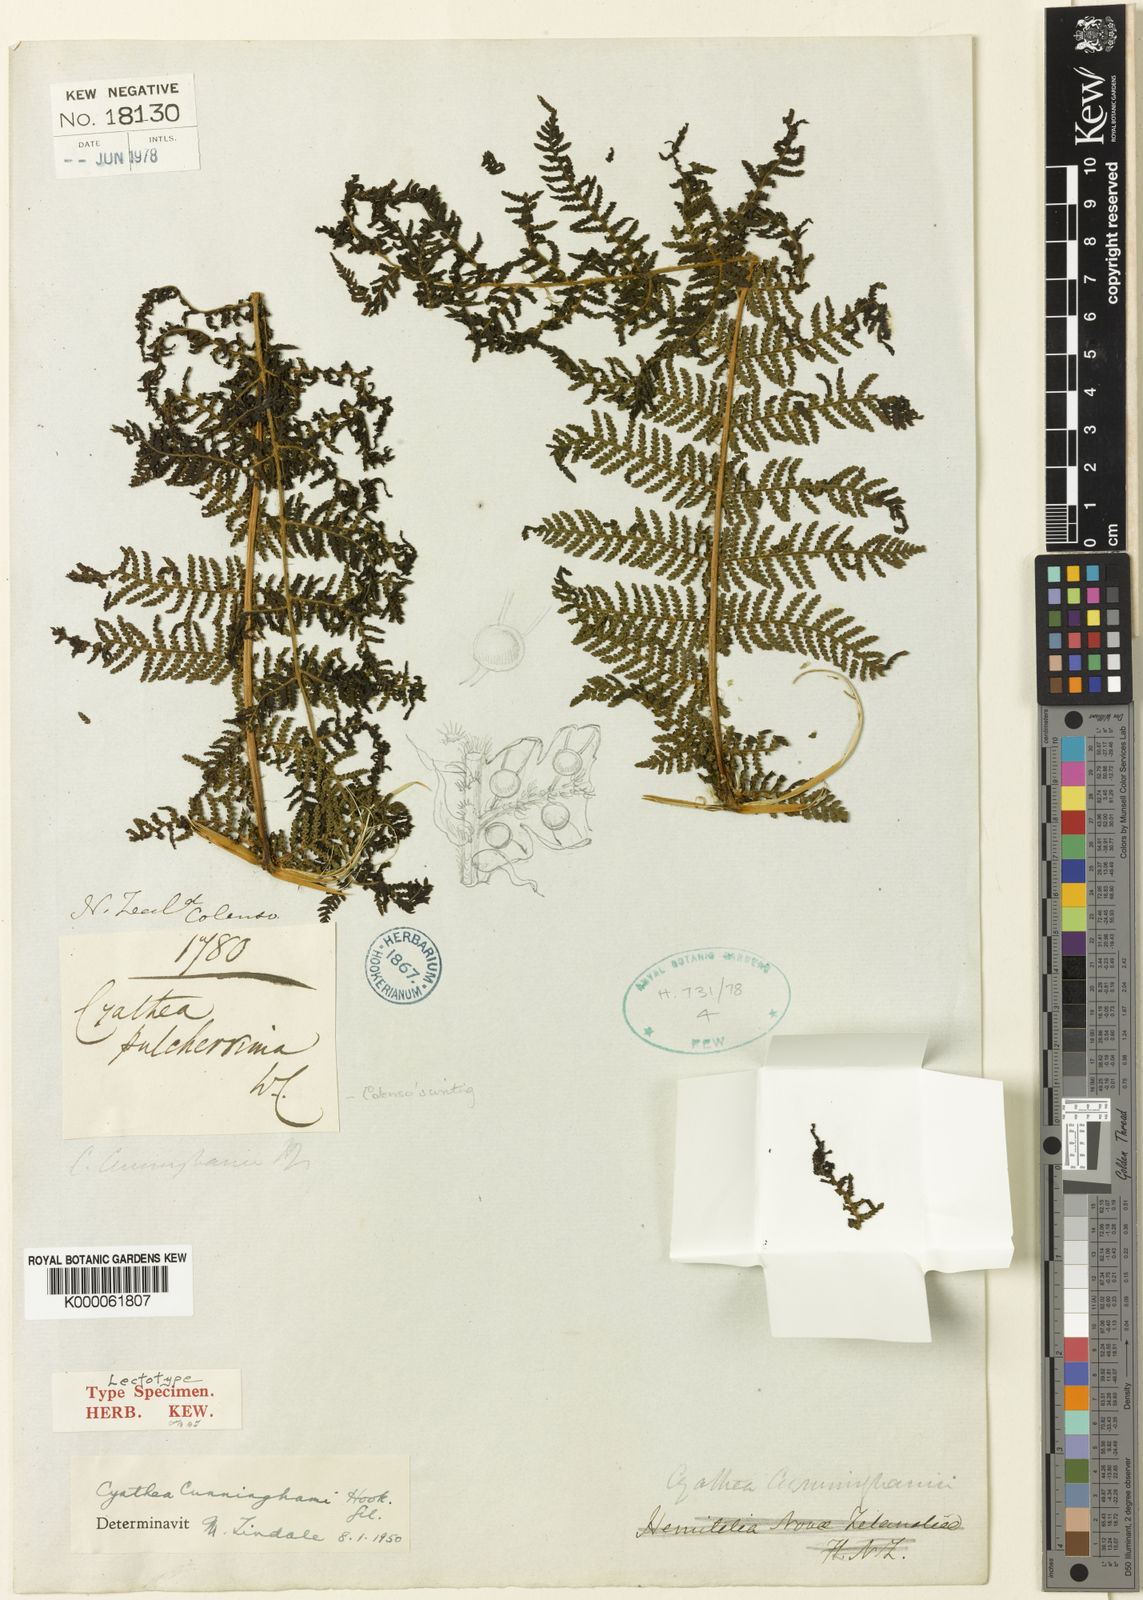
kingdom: Plantae
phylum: Tracheophyta
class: Polypodiopsida
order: Cyatheales
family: Cyatheaceae
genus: Sphaeropteris
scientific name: Sphaeropteris medullaris
